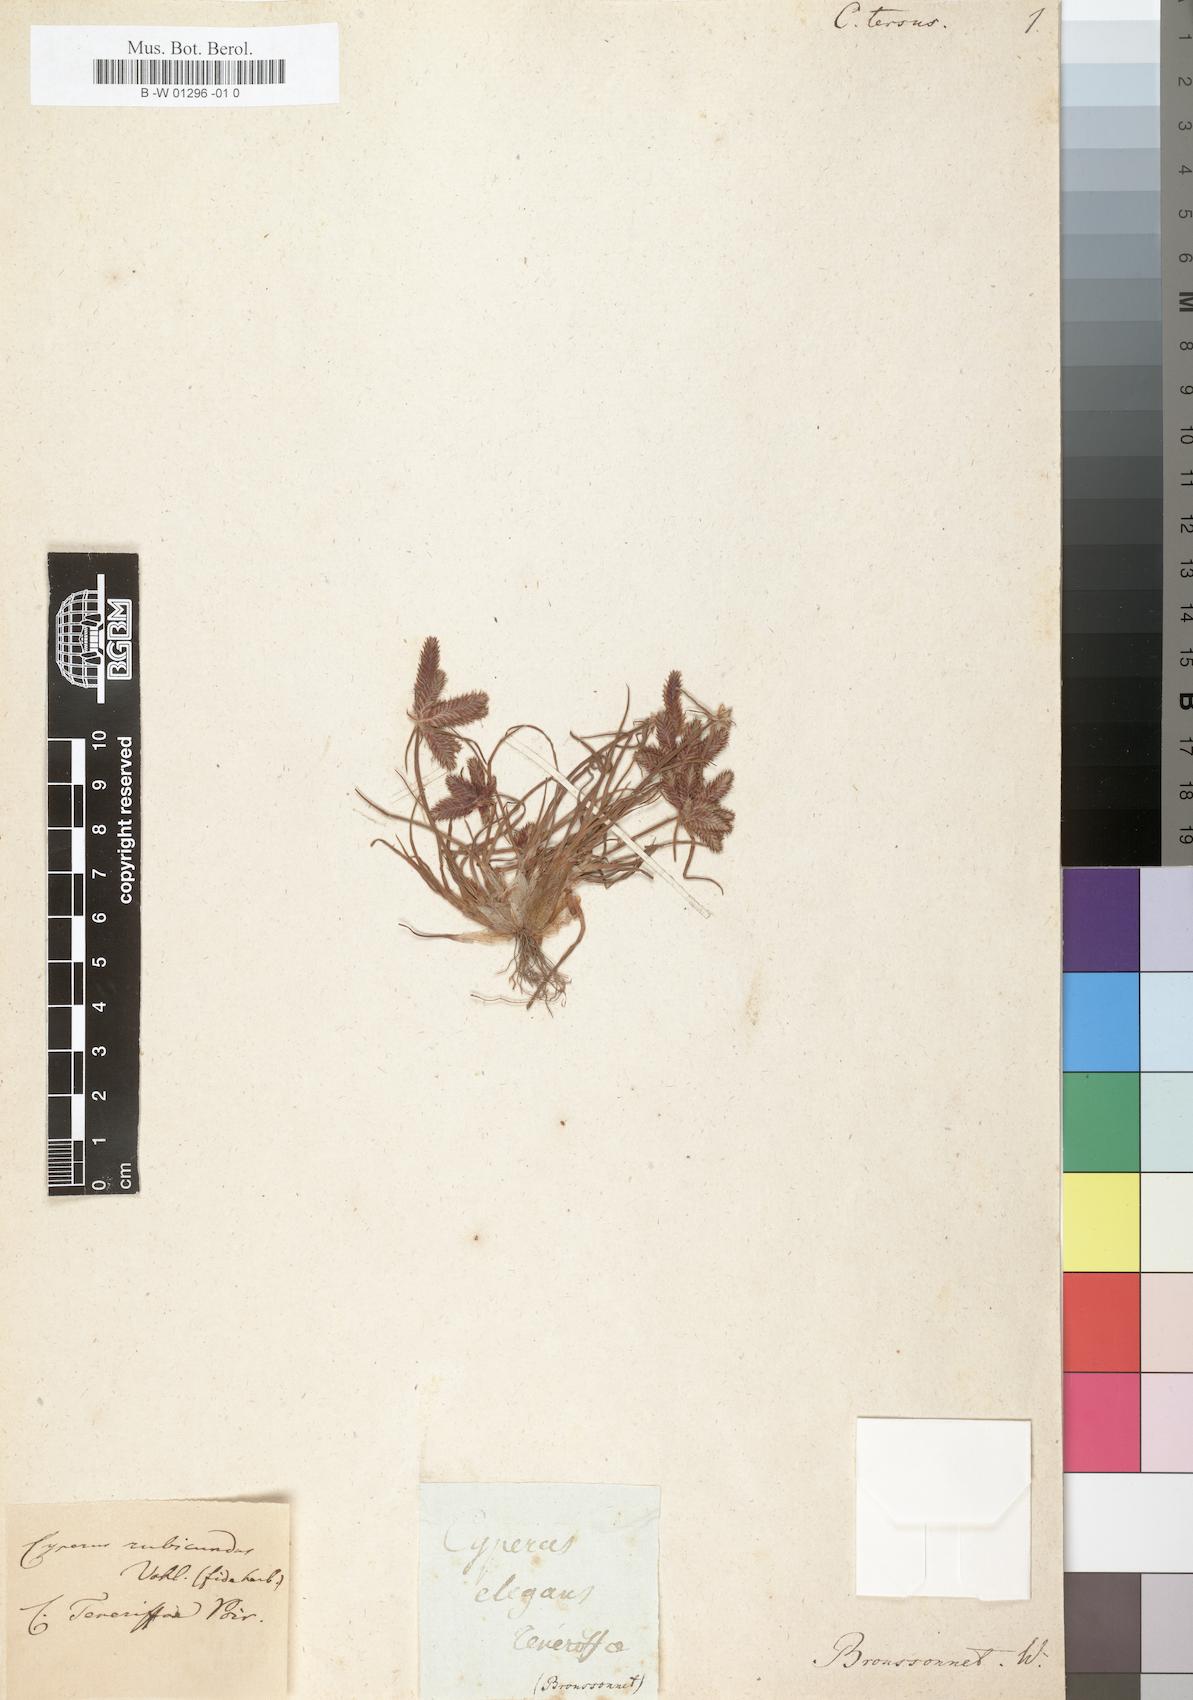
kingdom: Plantae
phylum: Tracheophyta
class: Liliopsida
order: Poales
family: Cyperaceae
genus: Cyperus
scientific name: Cyperus rubicundus
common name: Coco-grass
